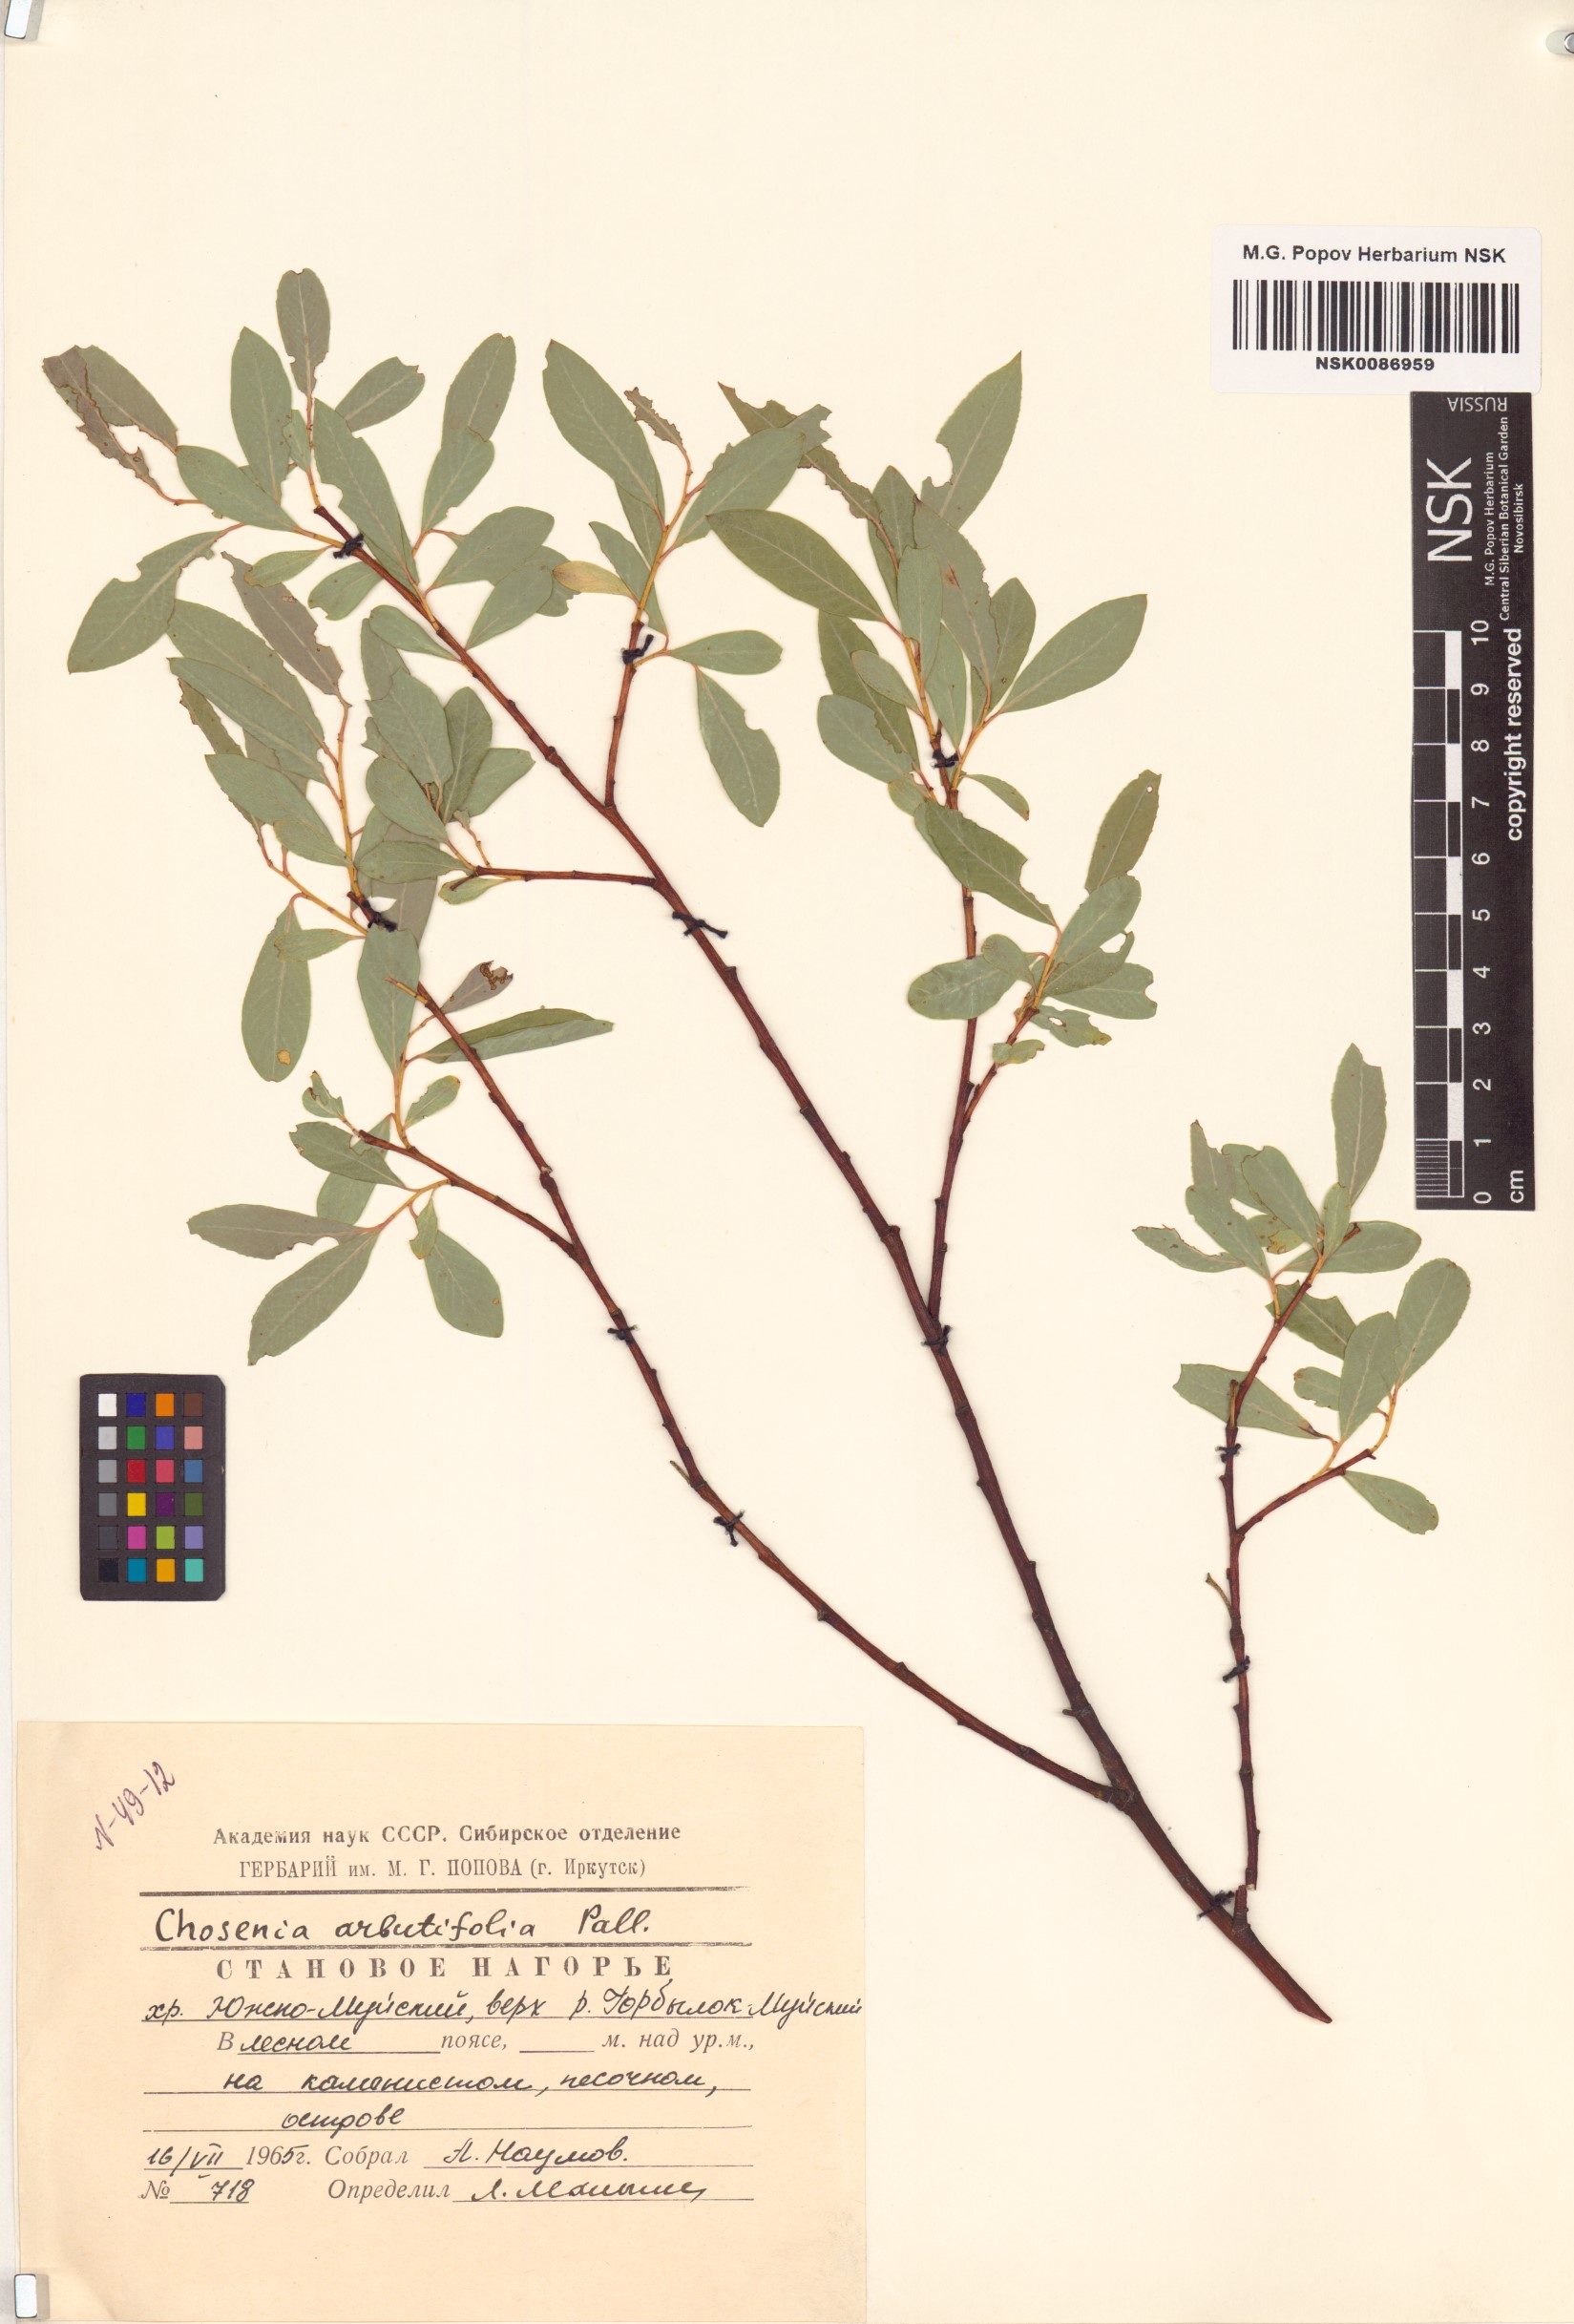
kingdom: Plantae
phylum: Tracheophyta
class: Magnoliopsida
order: Malpighiales
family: Salicaceae
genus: Chosenia
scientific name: Chosenia arbutifolia
